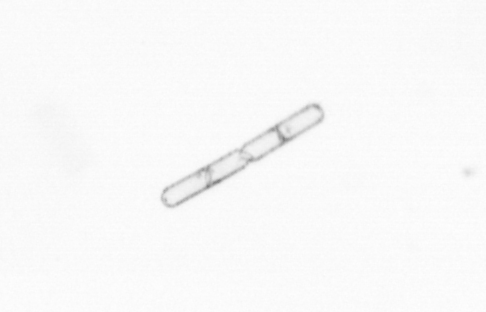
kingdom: Chromista
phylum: Ochrophyta
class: Bacillariophyceae
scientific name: Bacillariophyceae
